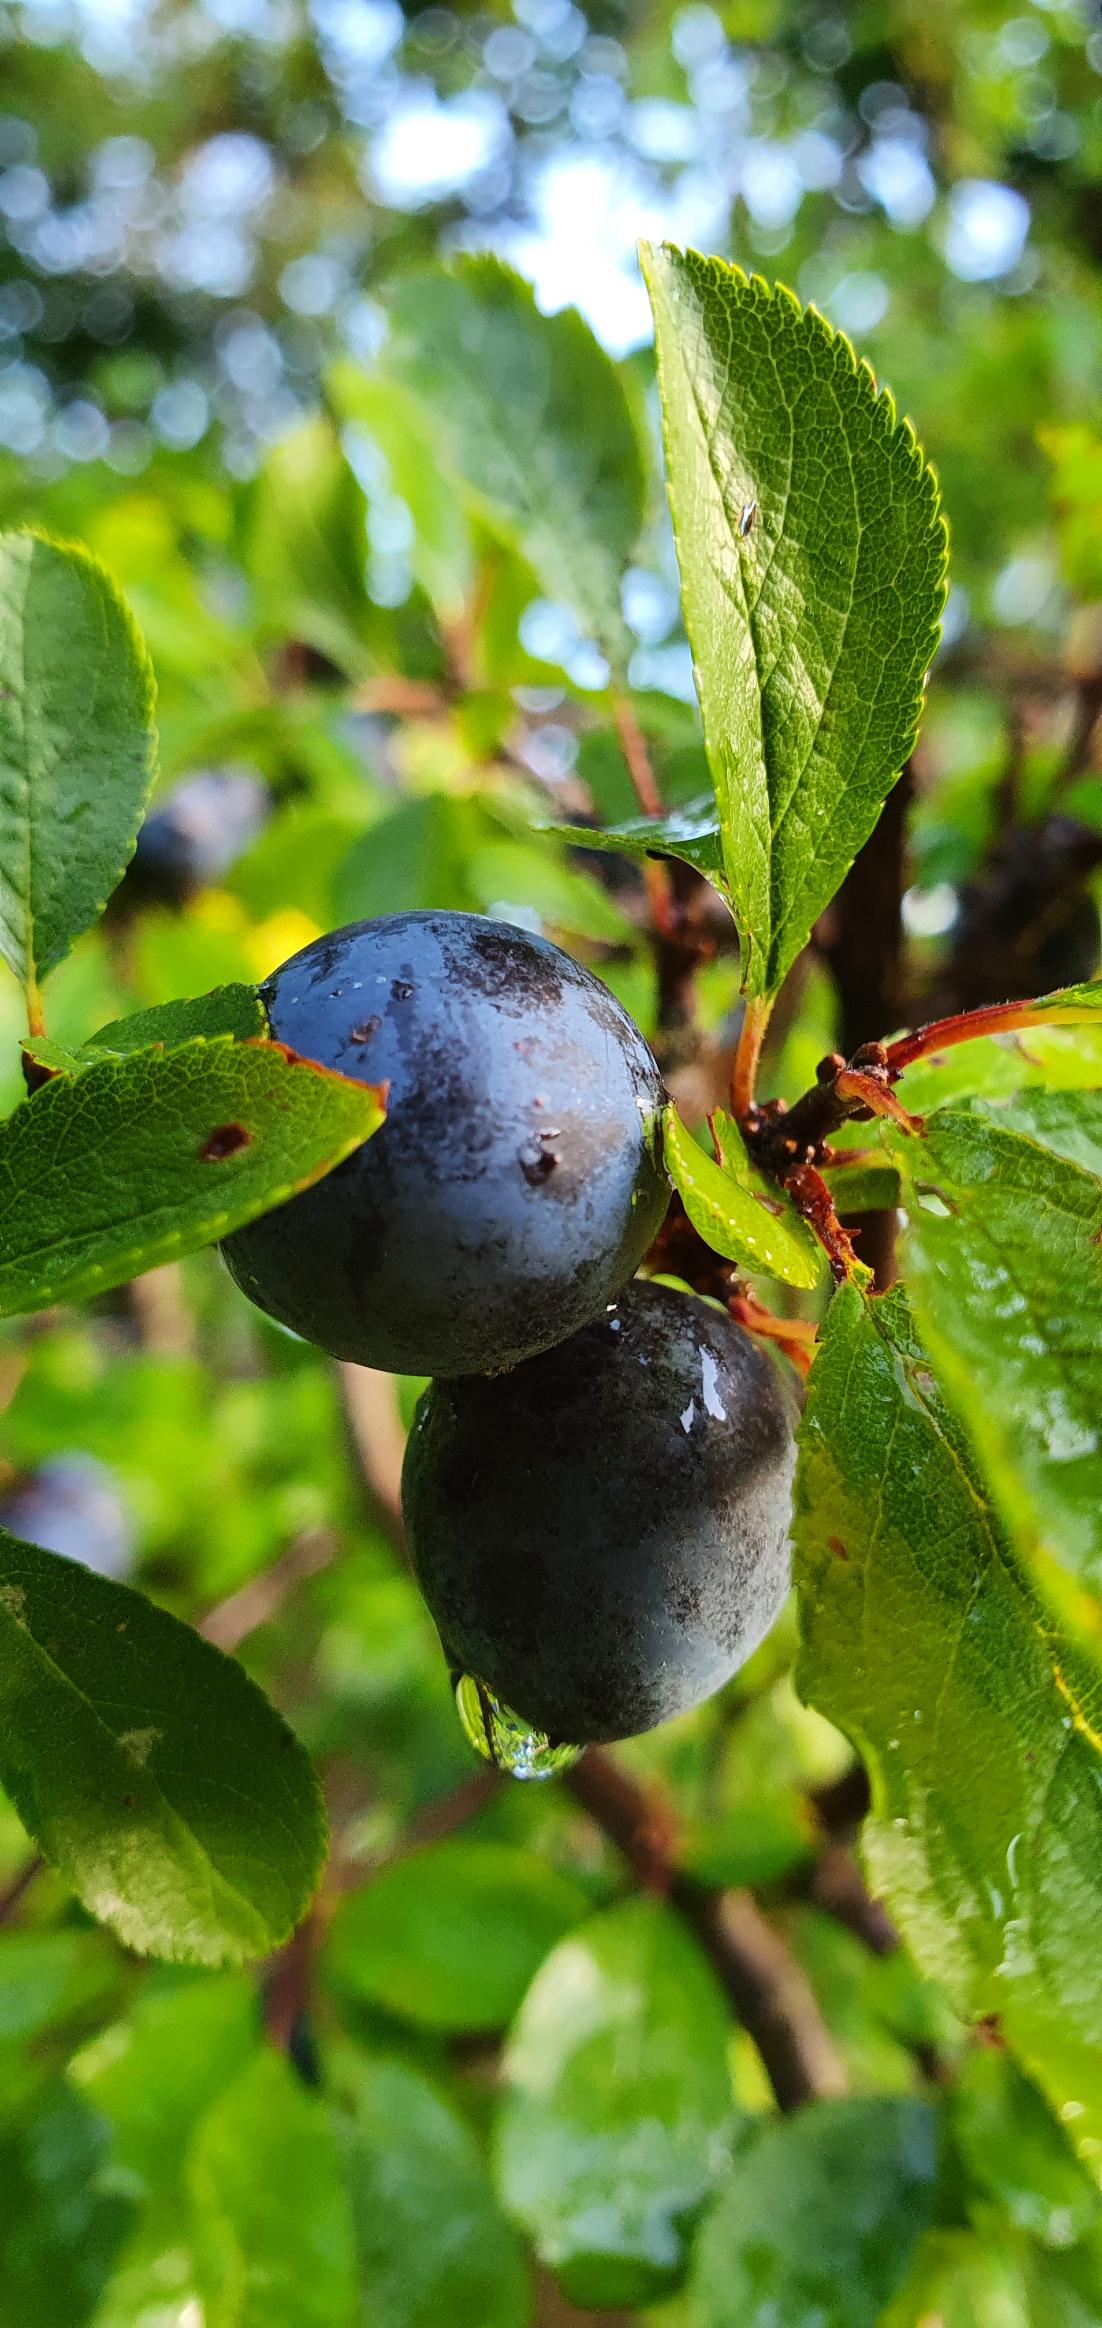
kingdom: Plantae
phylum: Tracheophyta
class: Magnoliopsida
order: Rosales
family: Rosaceae
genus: Prunus
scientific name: Prunus spinosa
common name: Slåen
